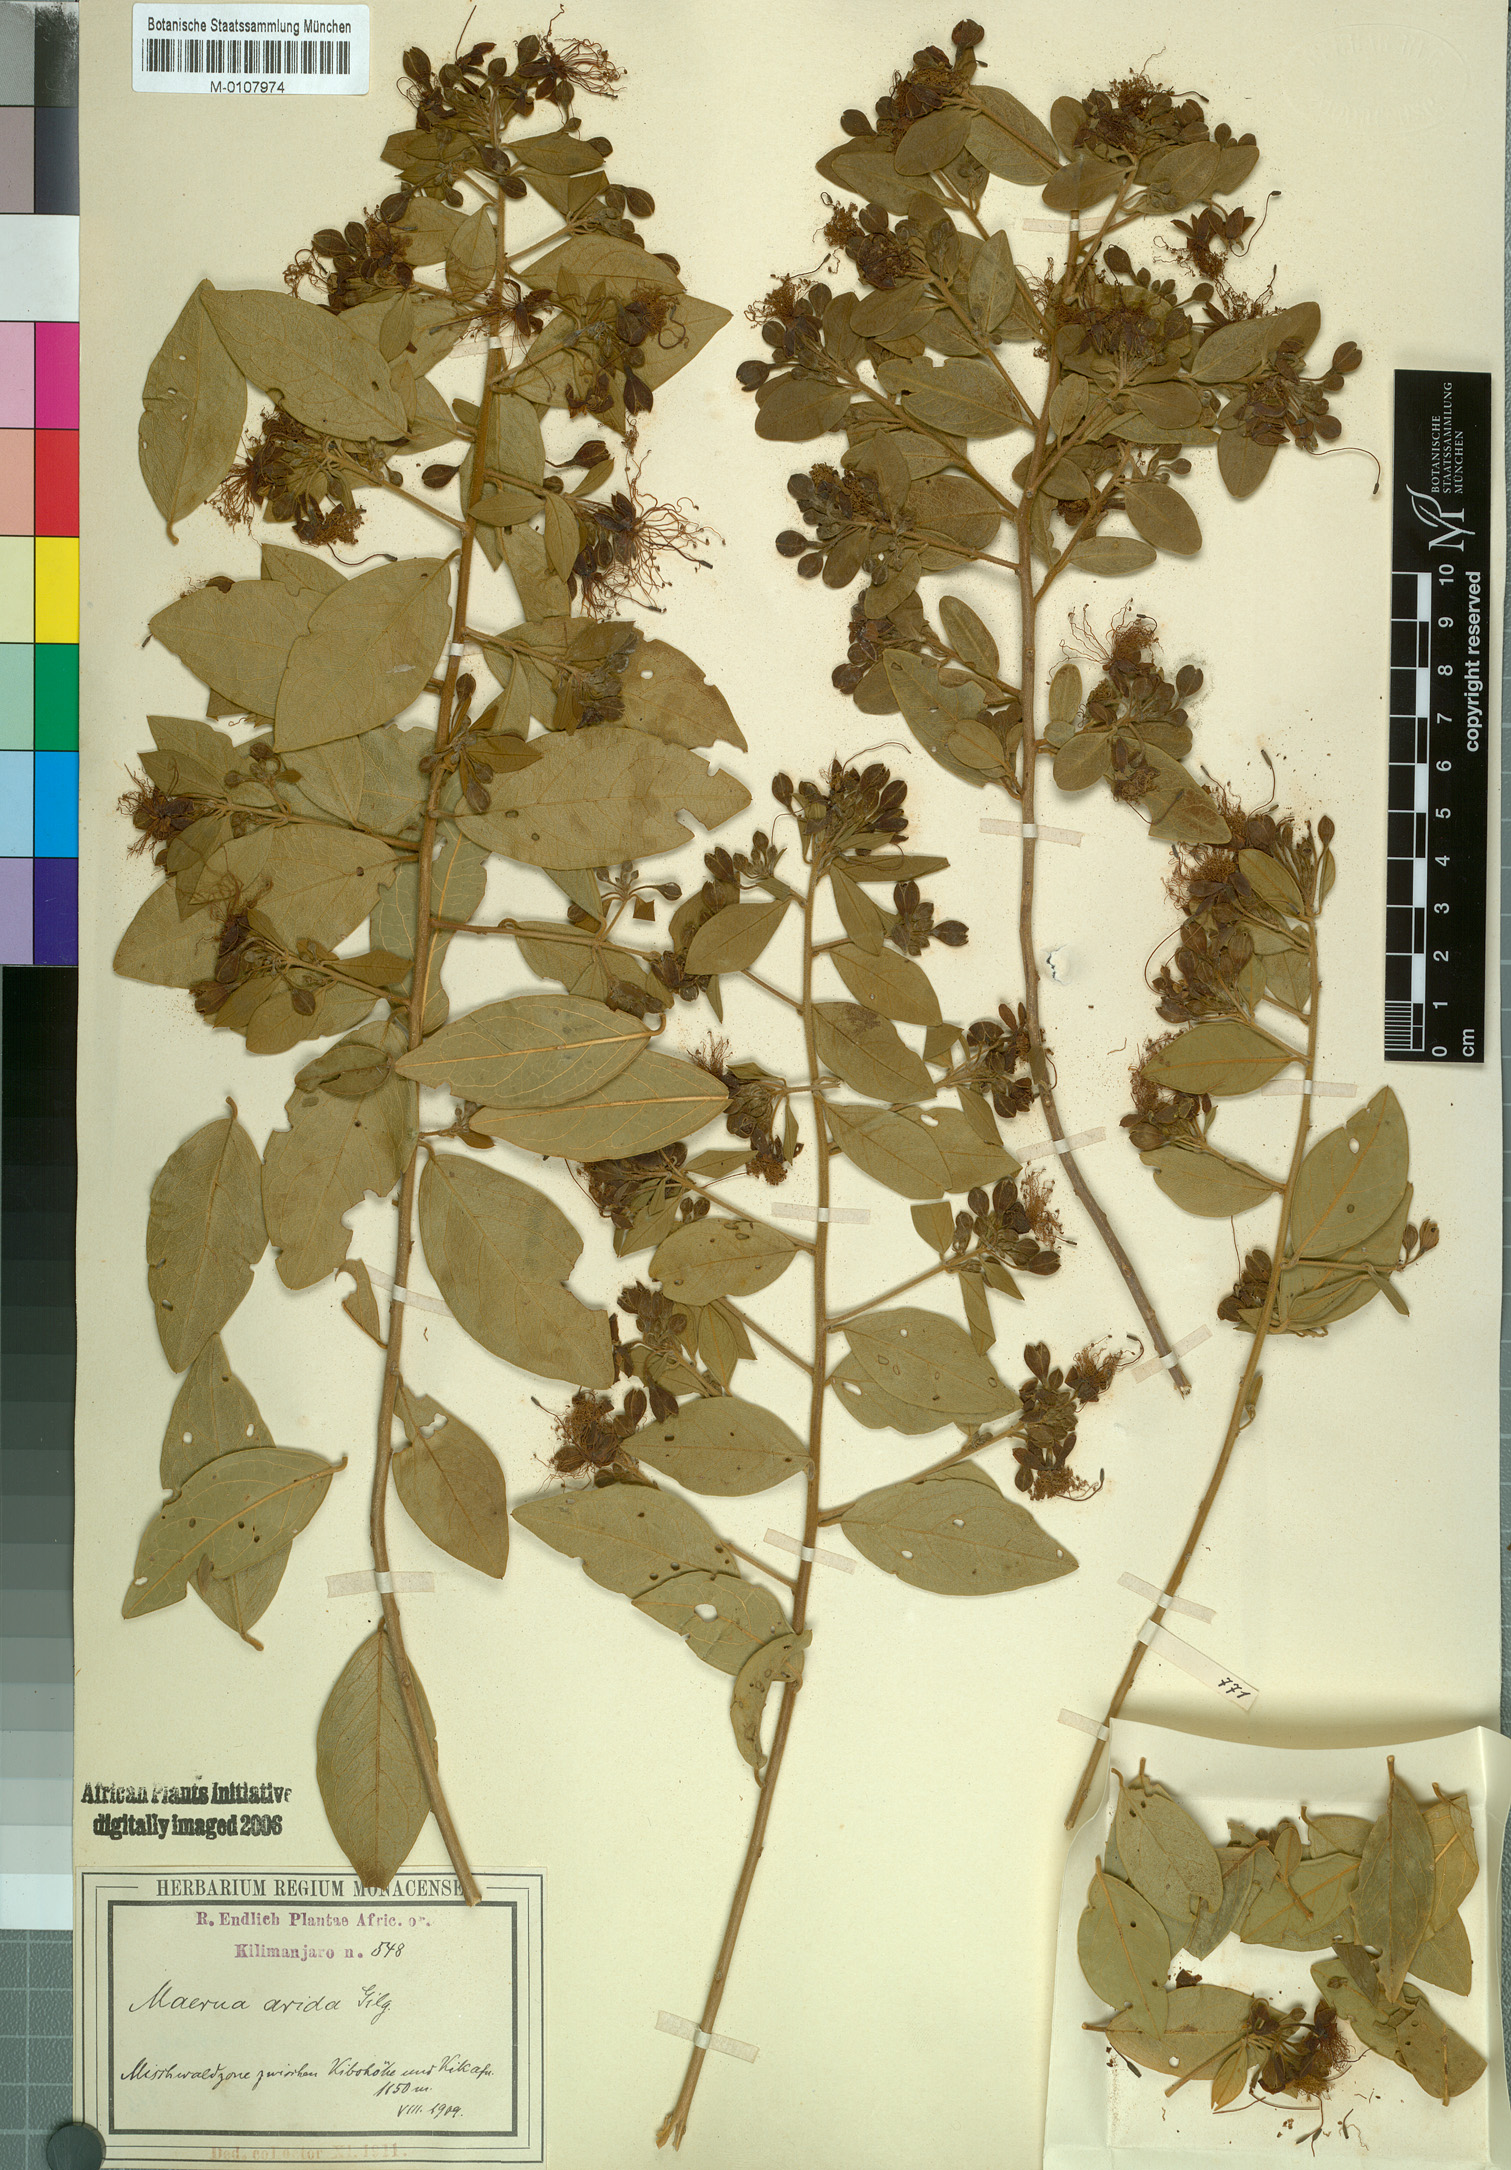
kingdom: Plantae
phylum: Tracheophyta
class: Magnoliopsida
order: Brassicales
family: Capparaceae
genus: Maerua
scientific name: Maerua
